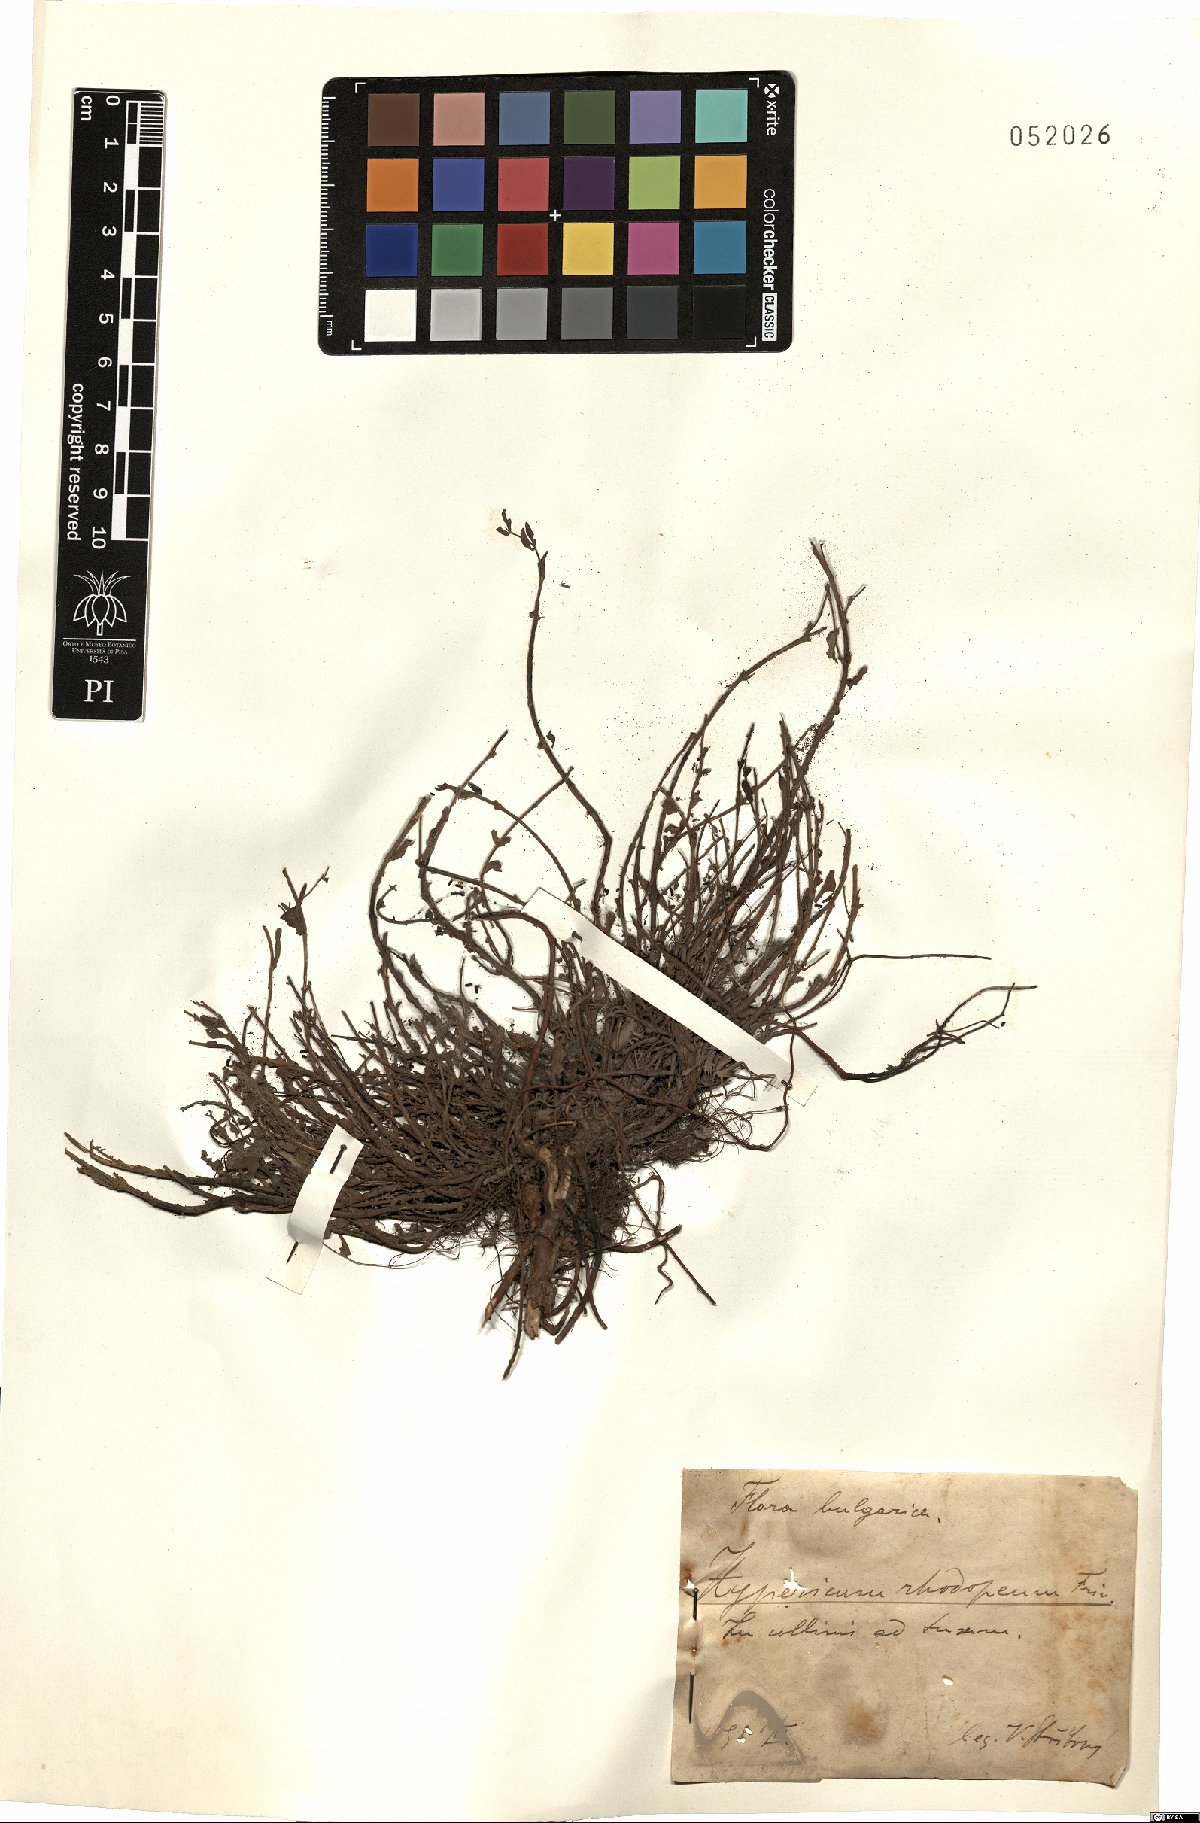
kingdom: Plantae
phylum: Tracheophyta
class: Magnoliopsida
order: Malpighiales
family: Hypericaceae
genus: Hypericum
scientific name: Hypericum cerastoides
